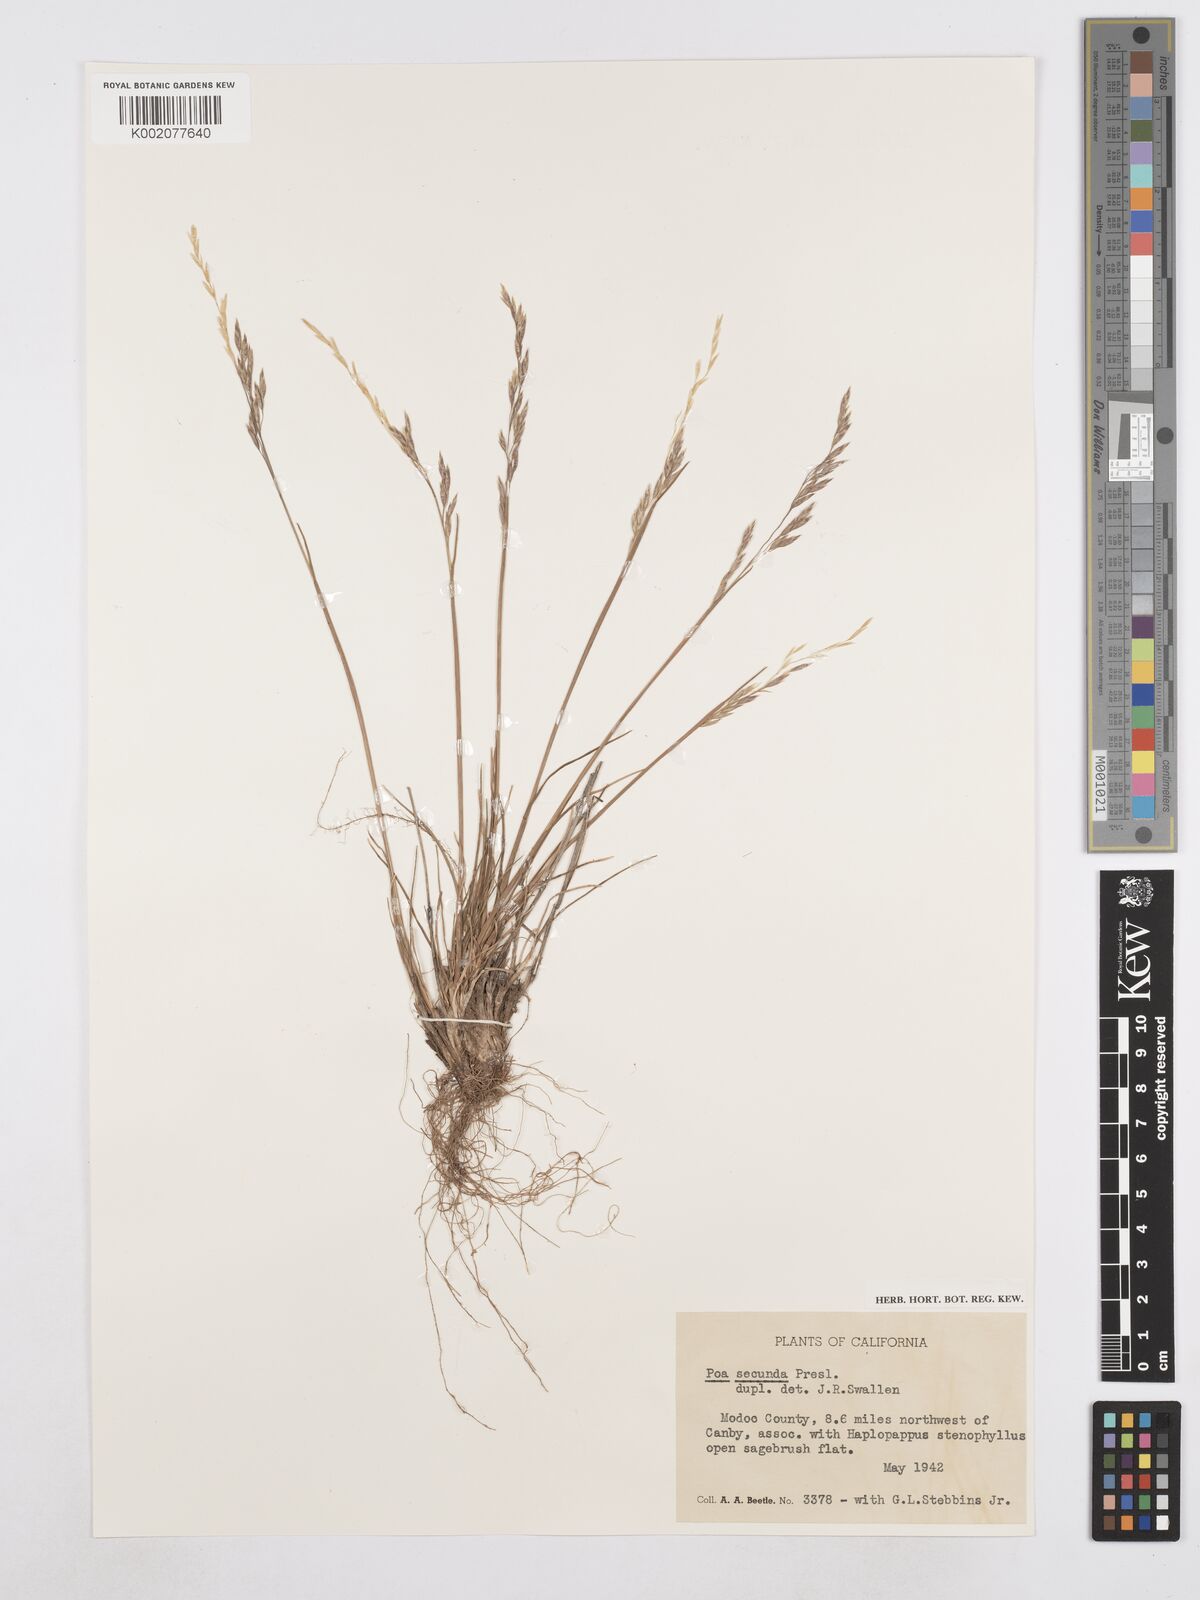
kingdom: Plantae
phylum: Tracheophyta
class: Liliopsida
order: Poales
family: Poaceae
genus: Poa
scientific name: Poa secunda
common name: Sandberg bluegrass
